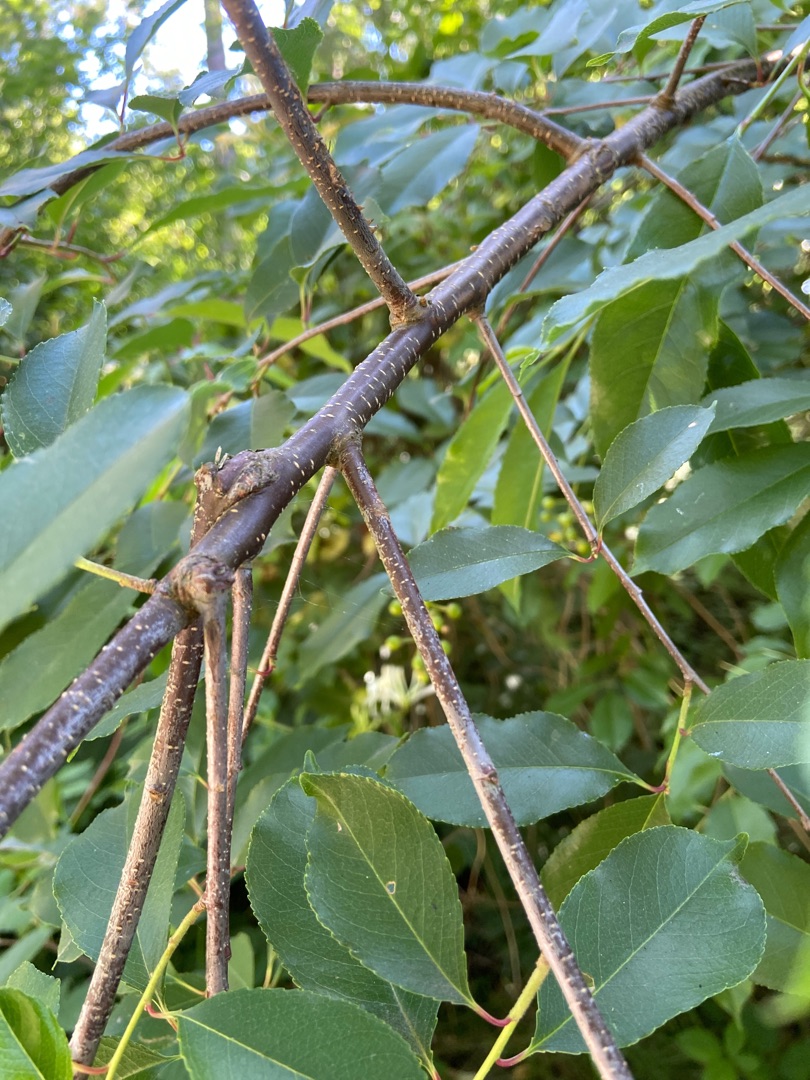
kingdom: Plantae
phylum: Tracheophyta
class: Magnoliopsida
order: Rosales
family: Rosaceae
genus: Prunus
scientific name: Prunus serotina
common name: Glansbladet hæg
